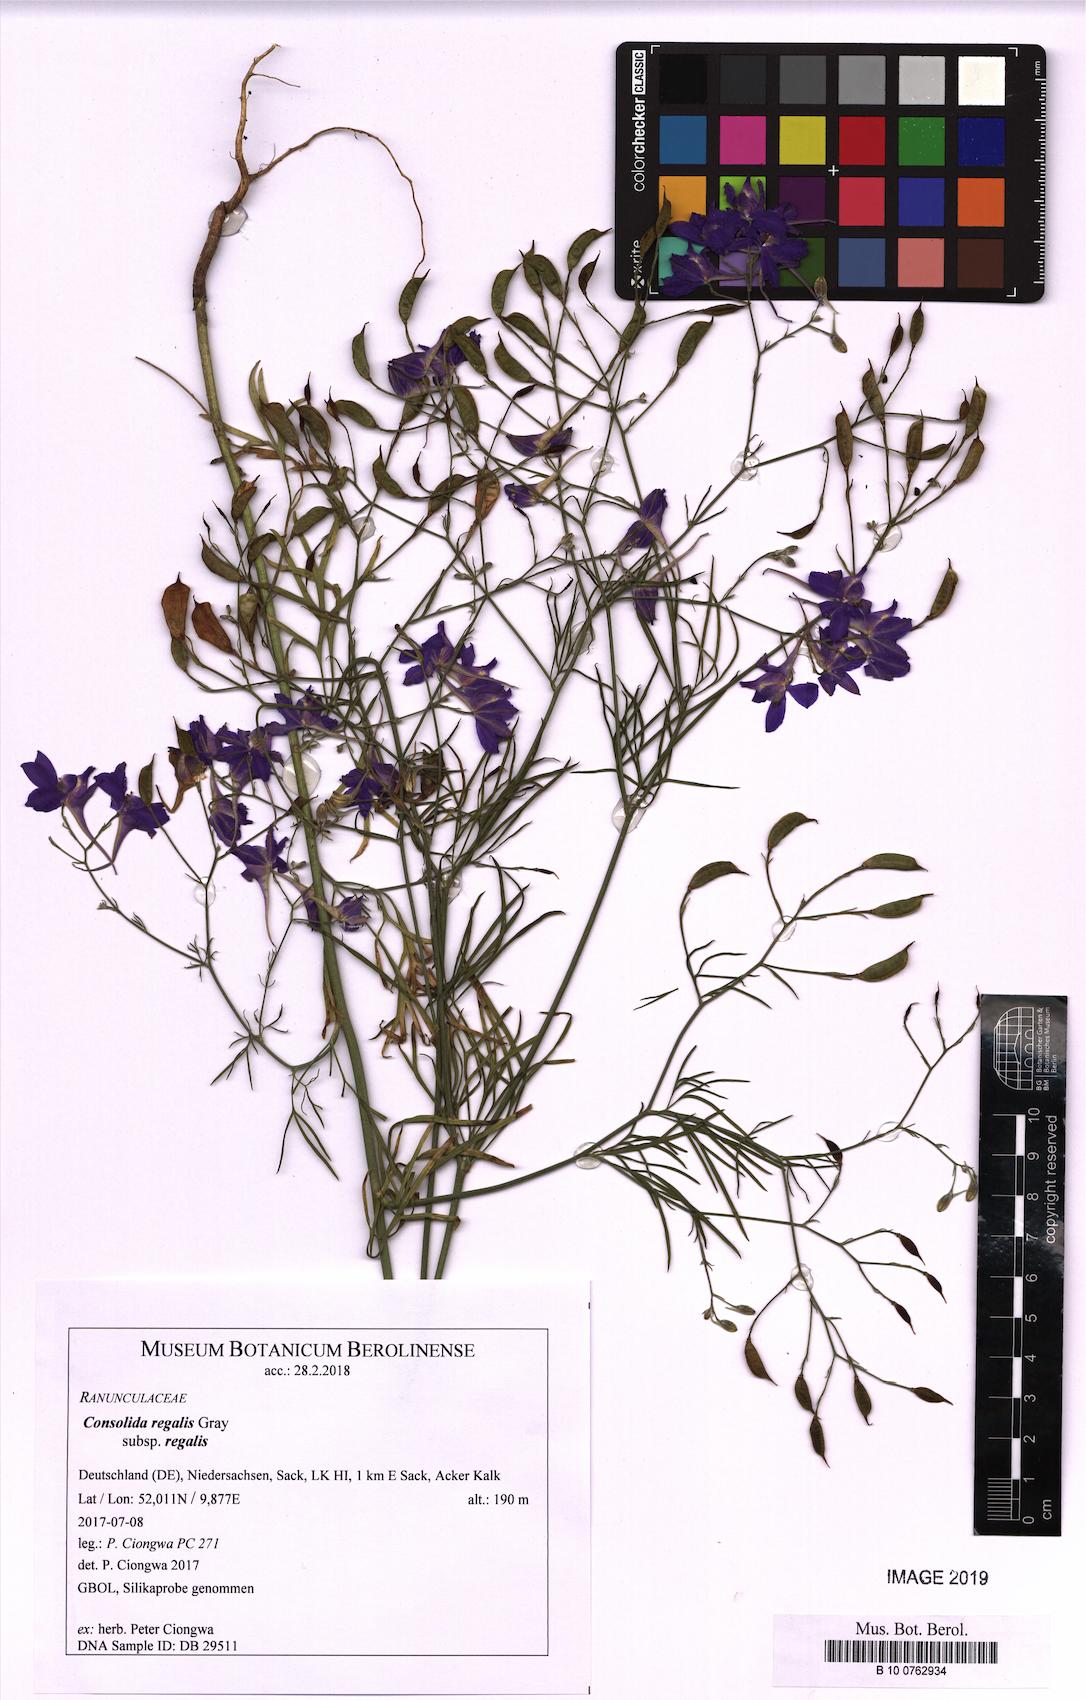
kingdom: Plantae
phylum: Tracheophyta
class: Magnoliopsida
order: Ranunculales
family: Ranunculaceae
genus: Delphinium
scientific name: Delphinium consolida
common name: Branching larkspur
